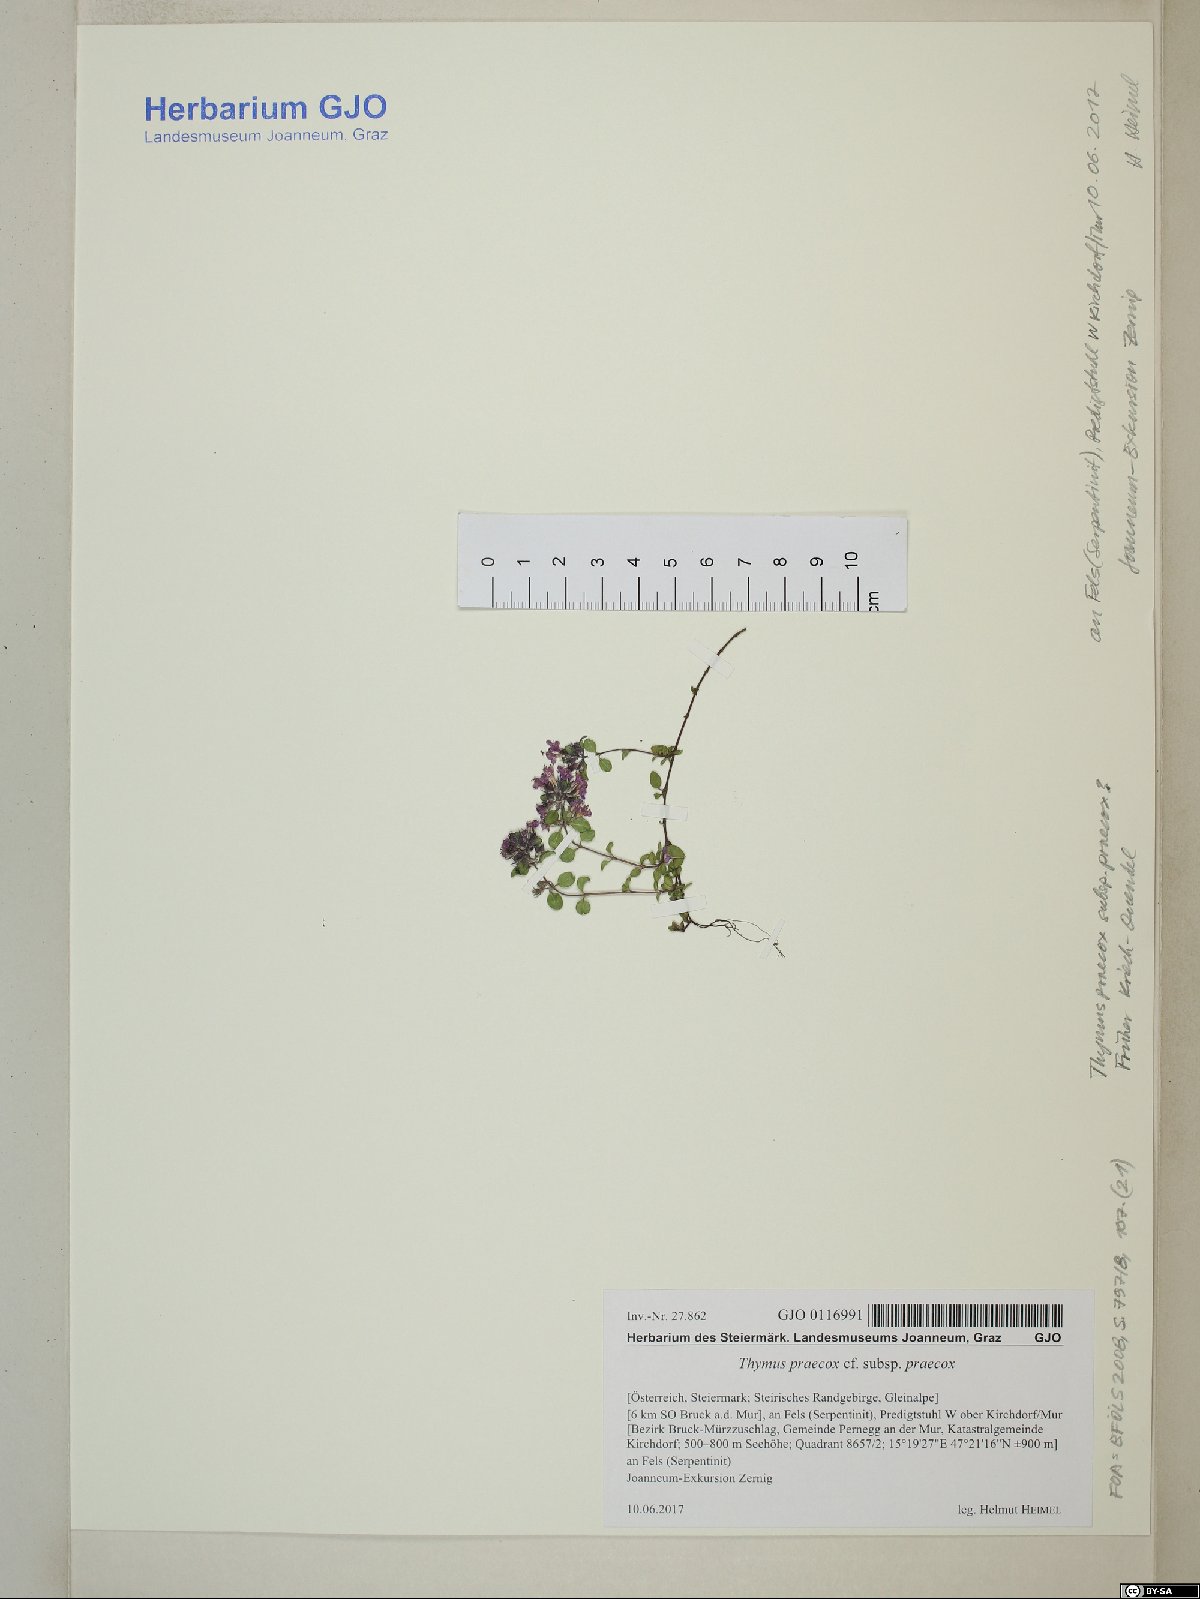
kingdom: Plantae
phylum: Tracheophyta
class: Magnoliopsida
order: Lamiales
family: Lamiaceae
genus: Thymus
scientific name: Thymus praecox
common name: Wild thyme
